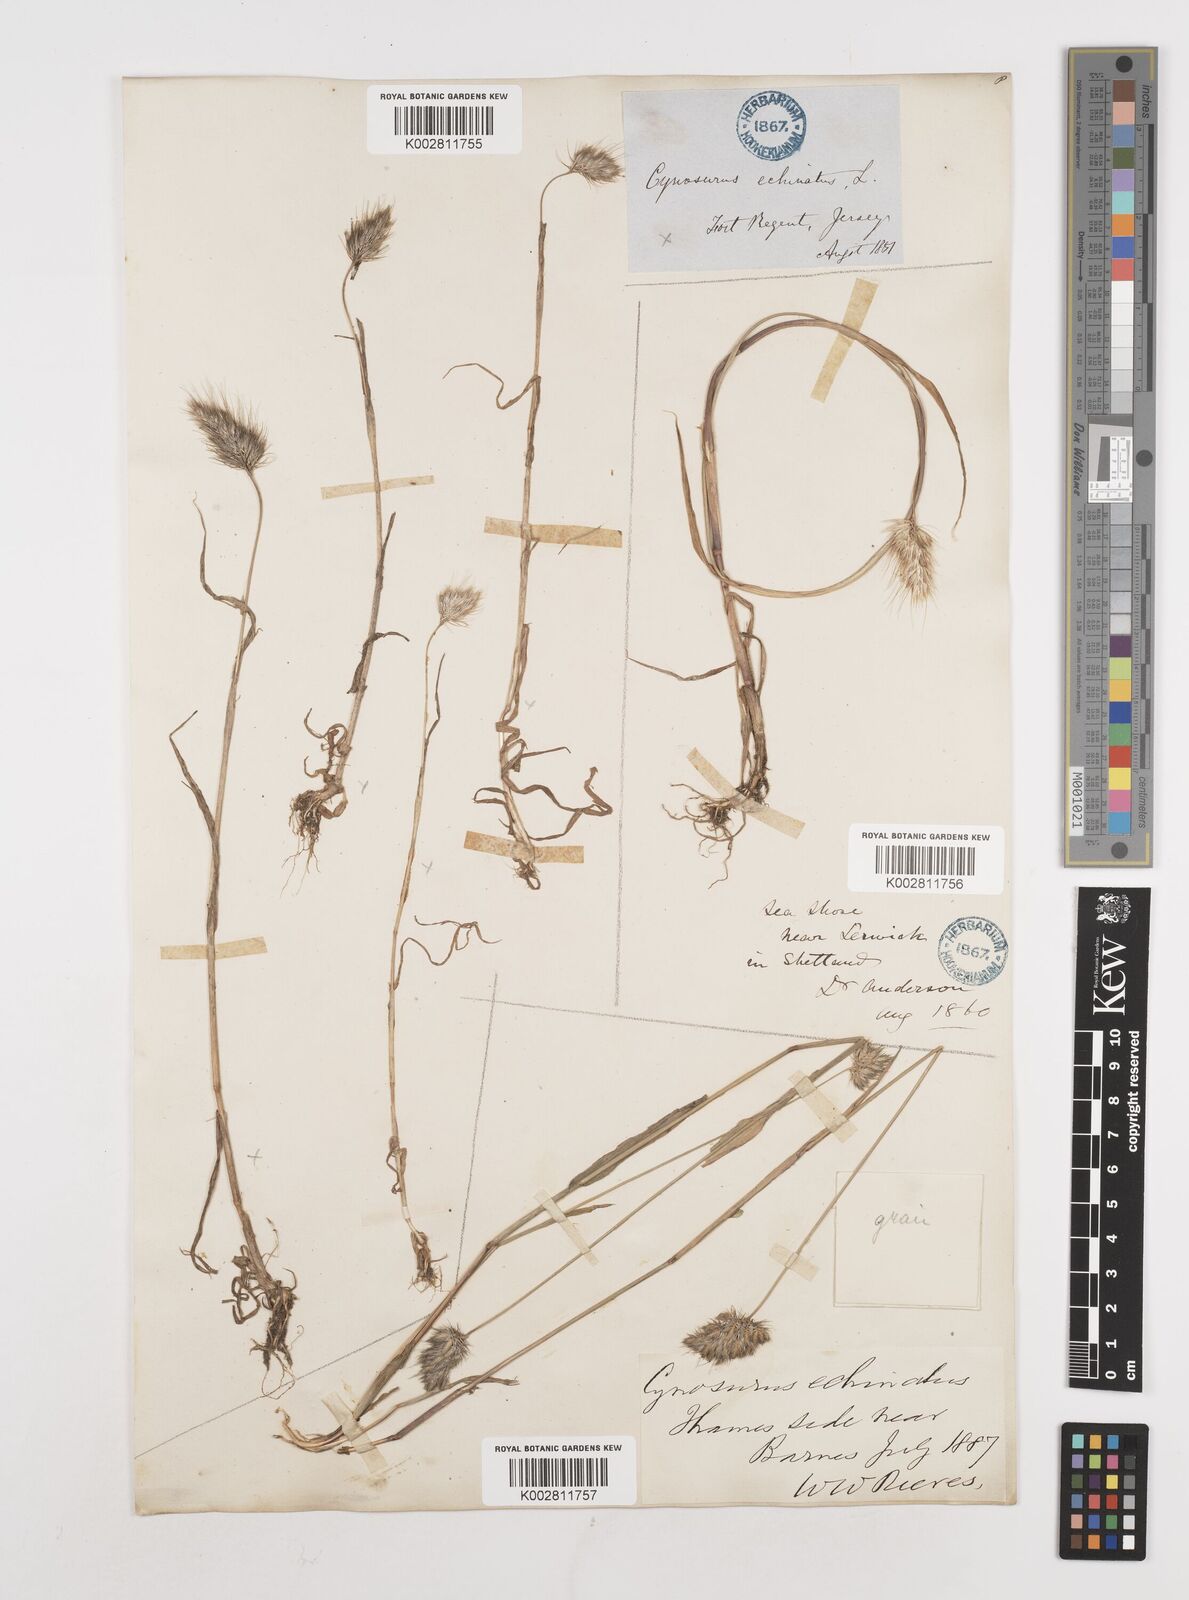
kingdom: Plantae
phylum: Tracheophyta
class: Liliopsida
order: Poales
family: Poaceae
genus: Cynosurus
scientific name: Cynosurus echinatus
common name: Rough dog's-tail
